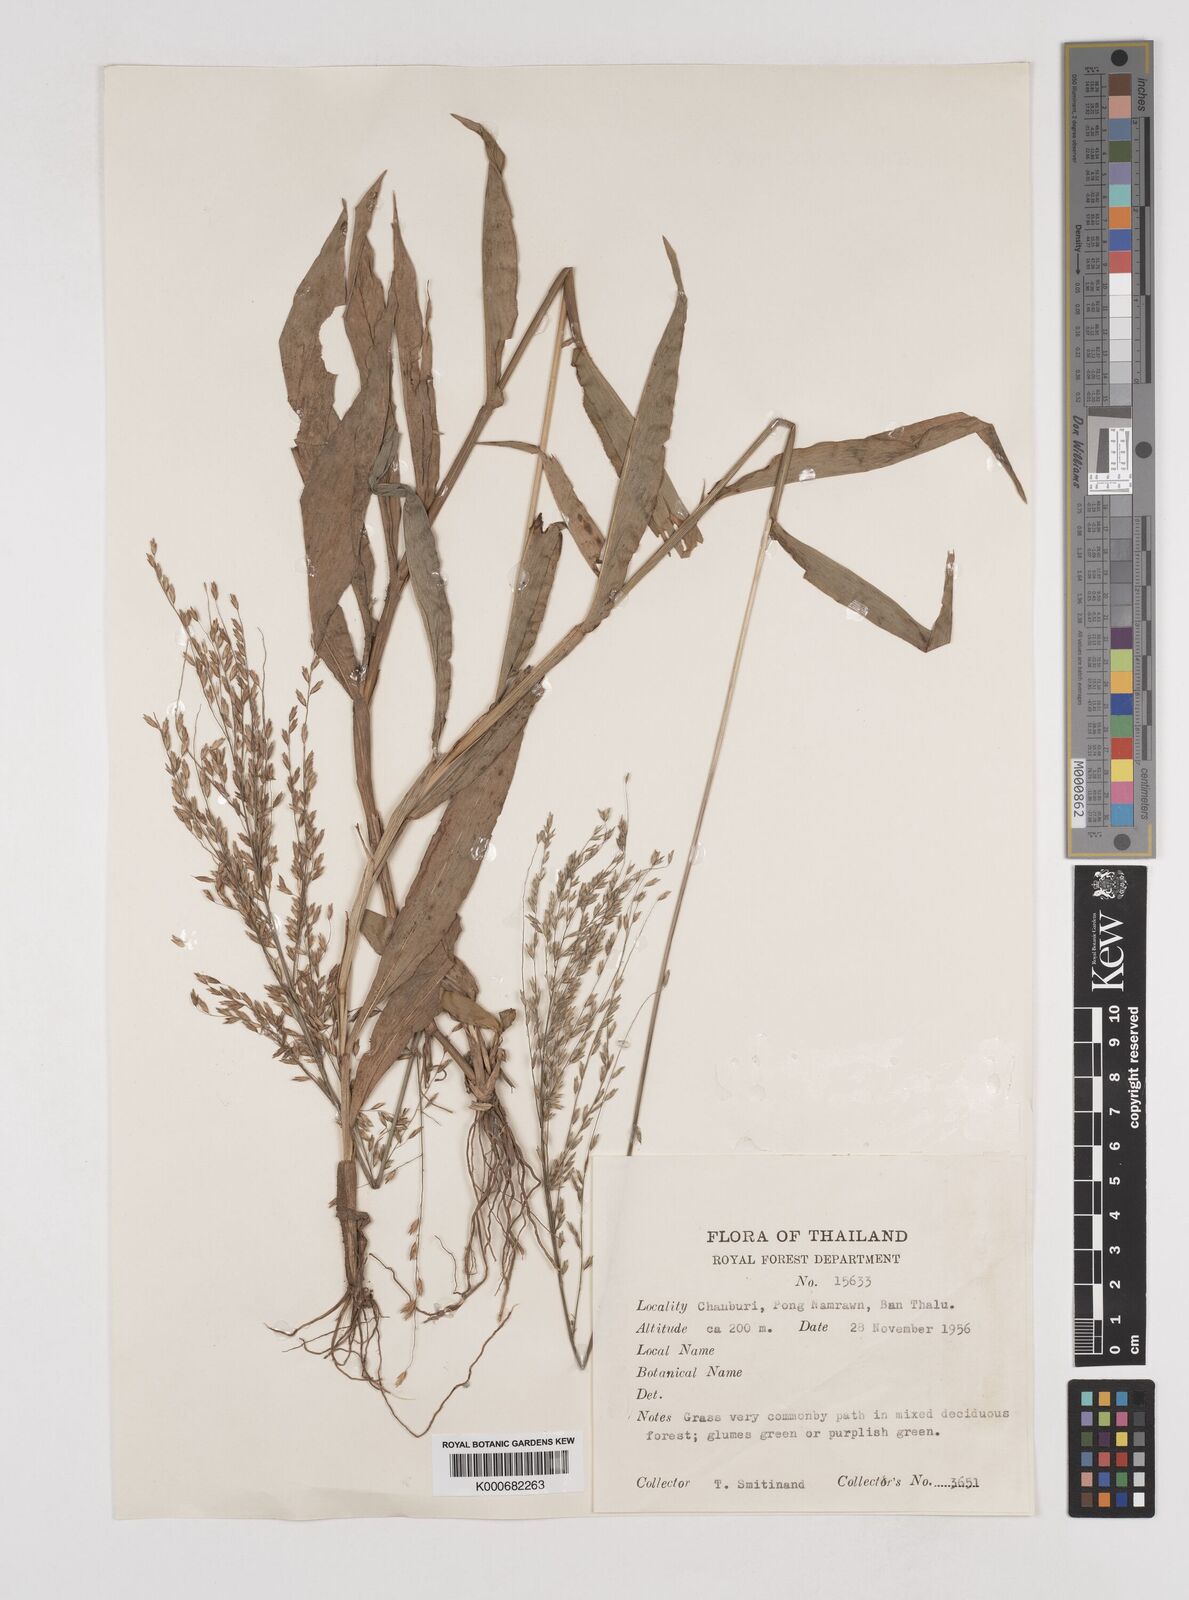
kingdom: Plantae
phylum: Tracheophyta
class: Liliopsida
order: Poales
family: Poaceae
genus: Centotheca
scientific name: Centotheca lappacea
